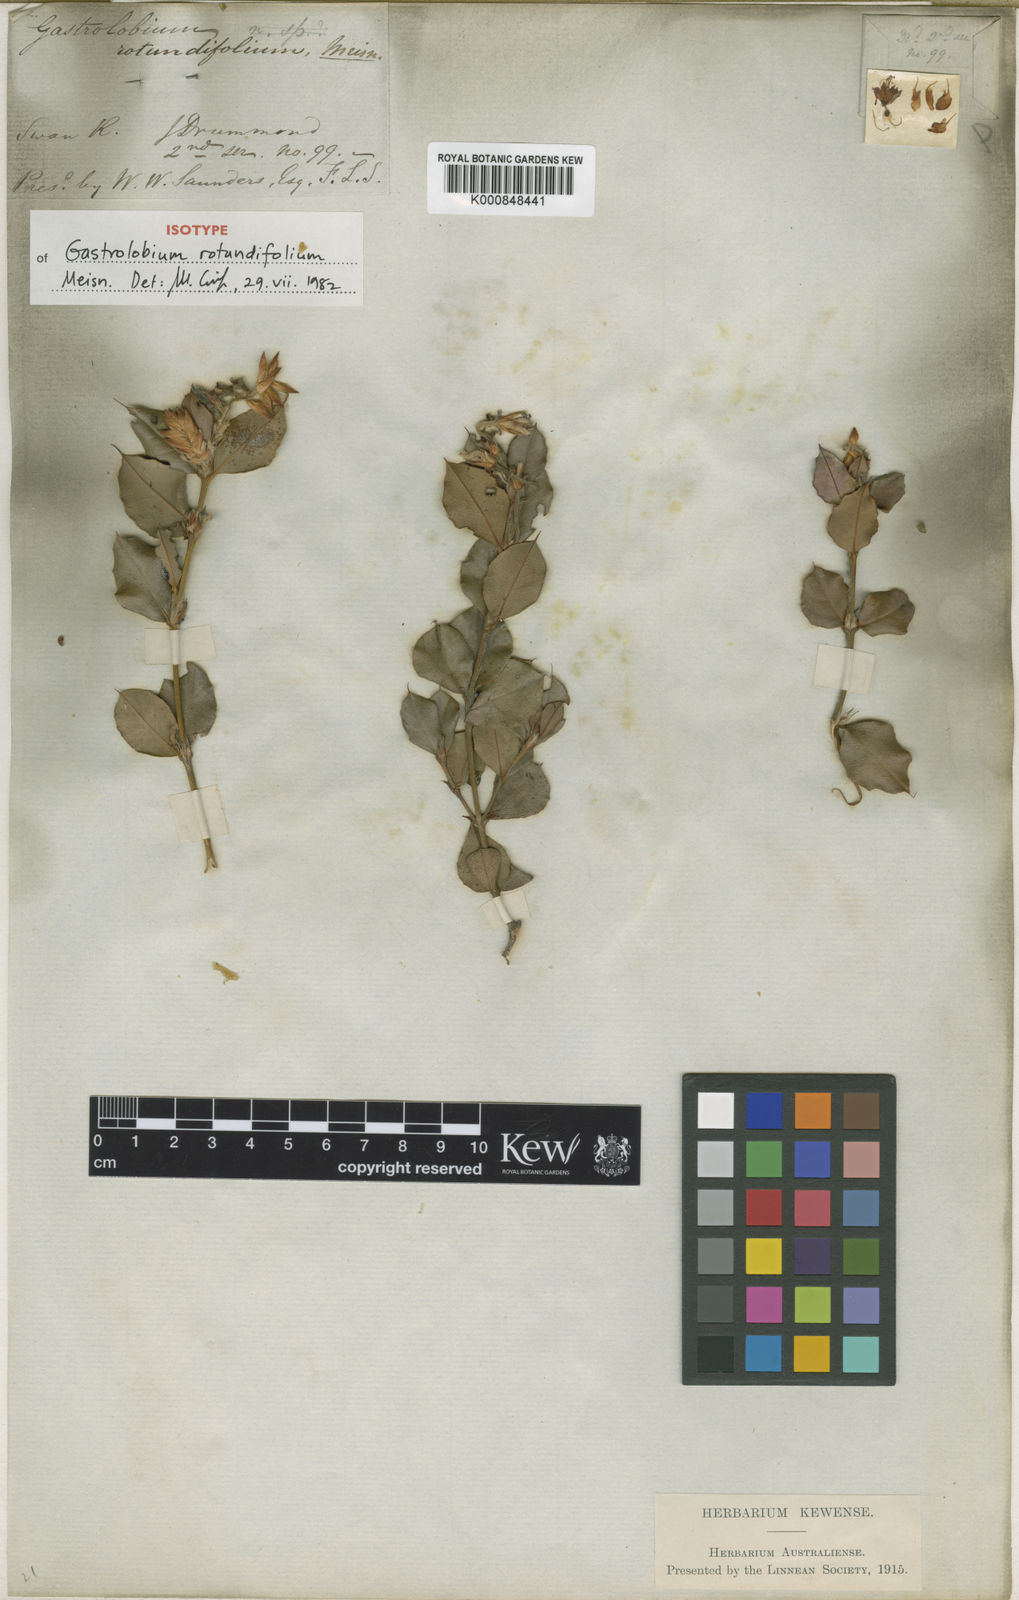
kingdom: Plantae
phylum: Tracheophyta
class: Magnoliopsida
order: Fabales
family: Fabaceae
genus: Gastrolobium
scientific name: Gastrolobium rotundifolium
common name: Gilbernine poison
